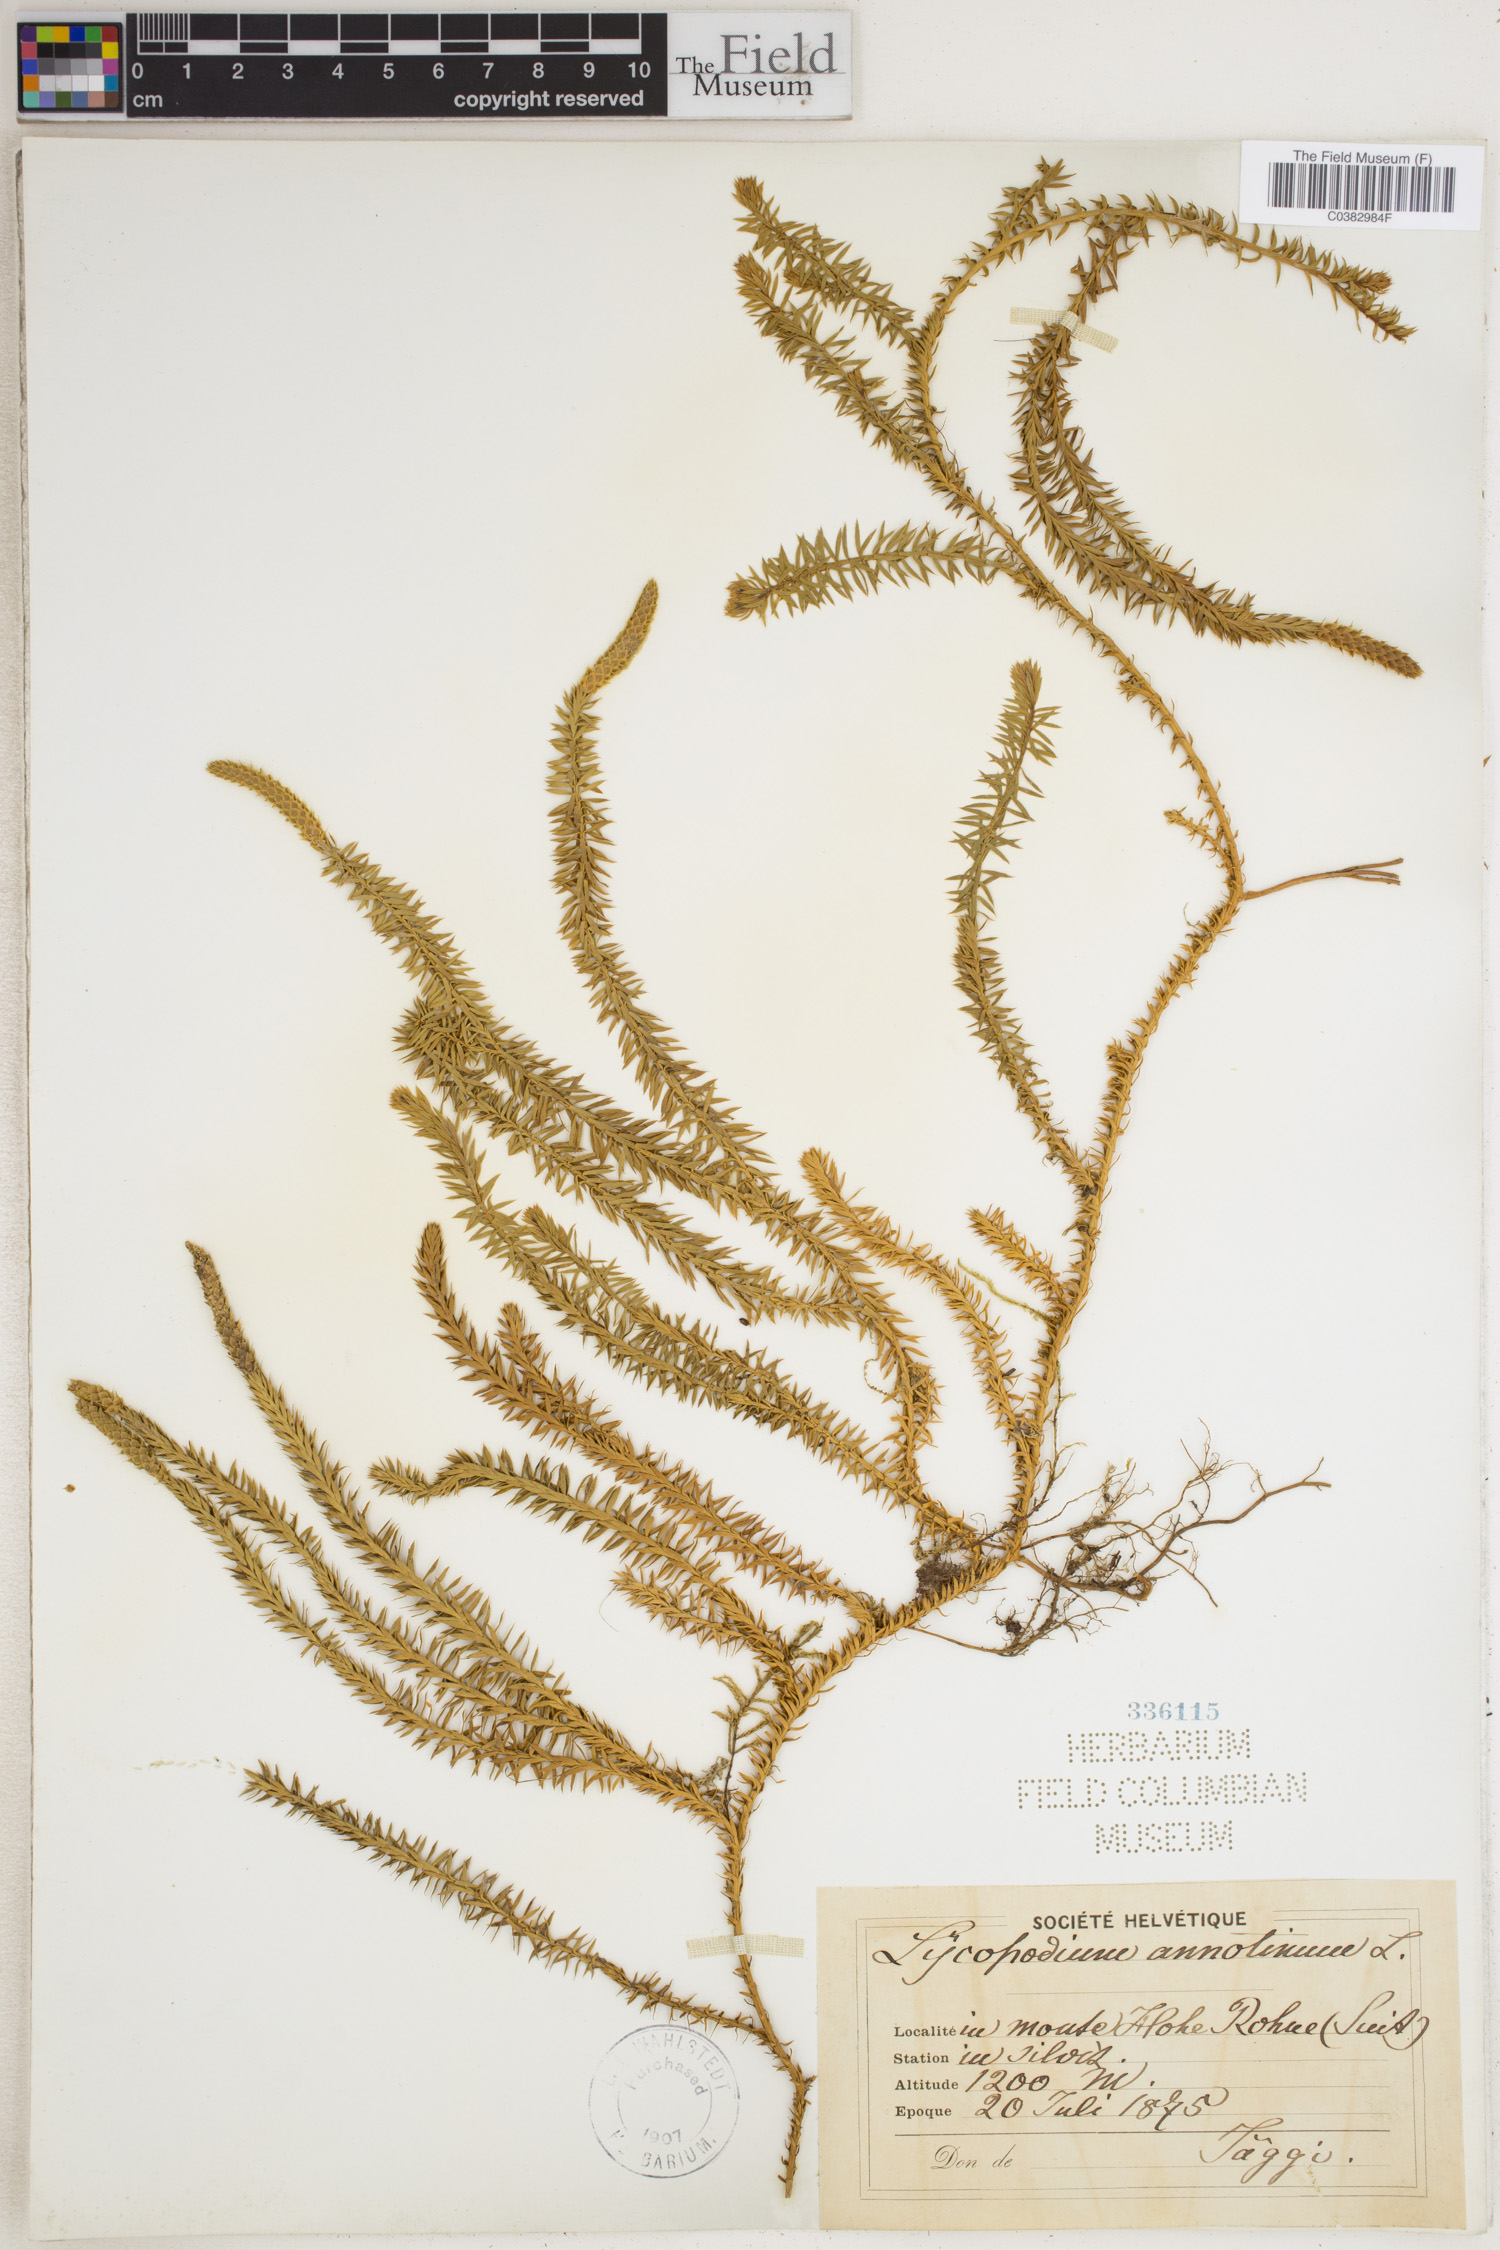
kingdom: Plantae
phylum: Tracheophyta
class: Lycopodiopsida
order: Lycopodiales
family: Lycopodiaceae
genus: Spinulum
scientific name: Spinulum annotinum
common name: Interrupted club-moss
